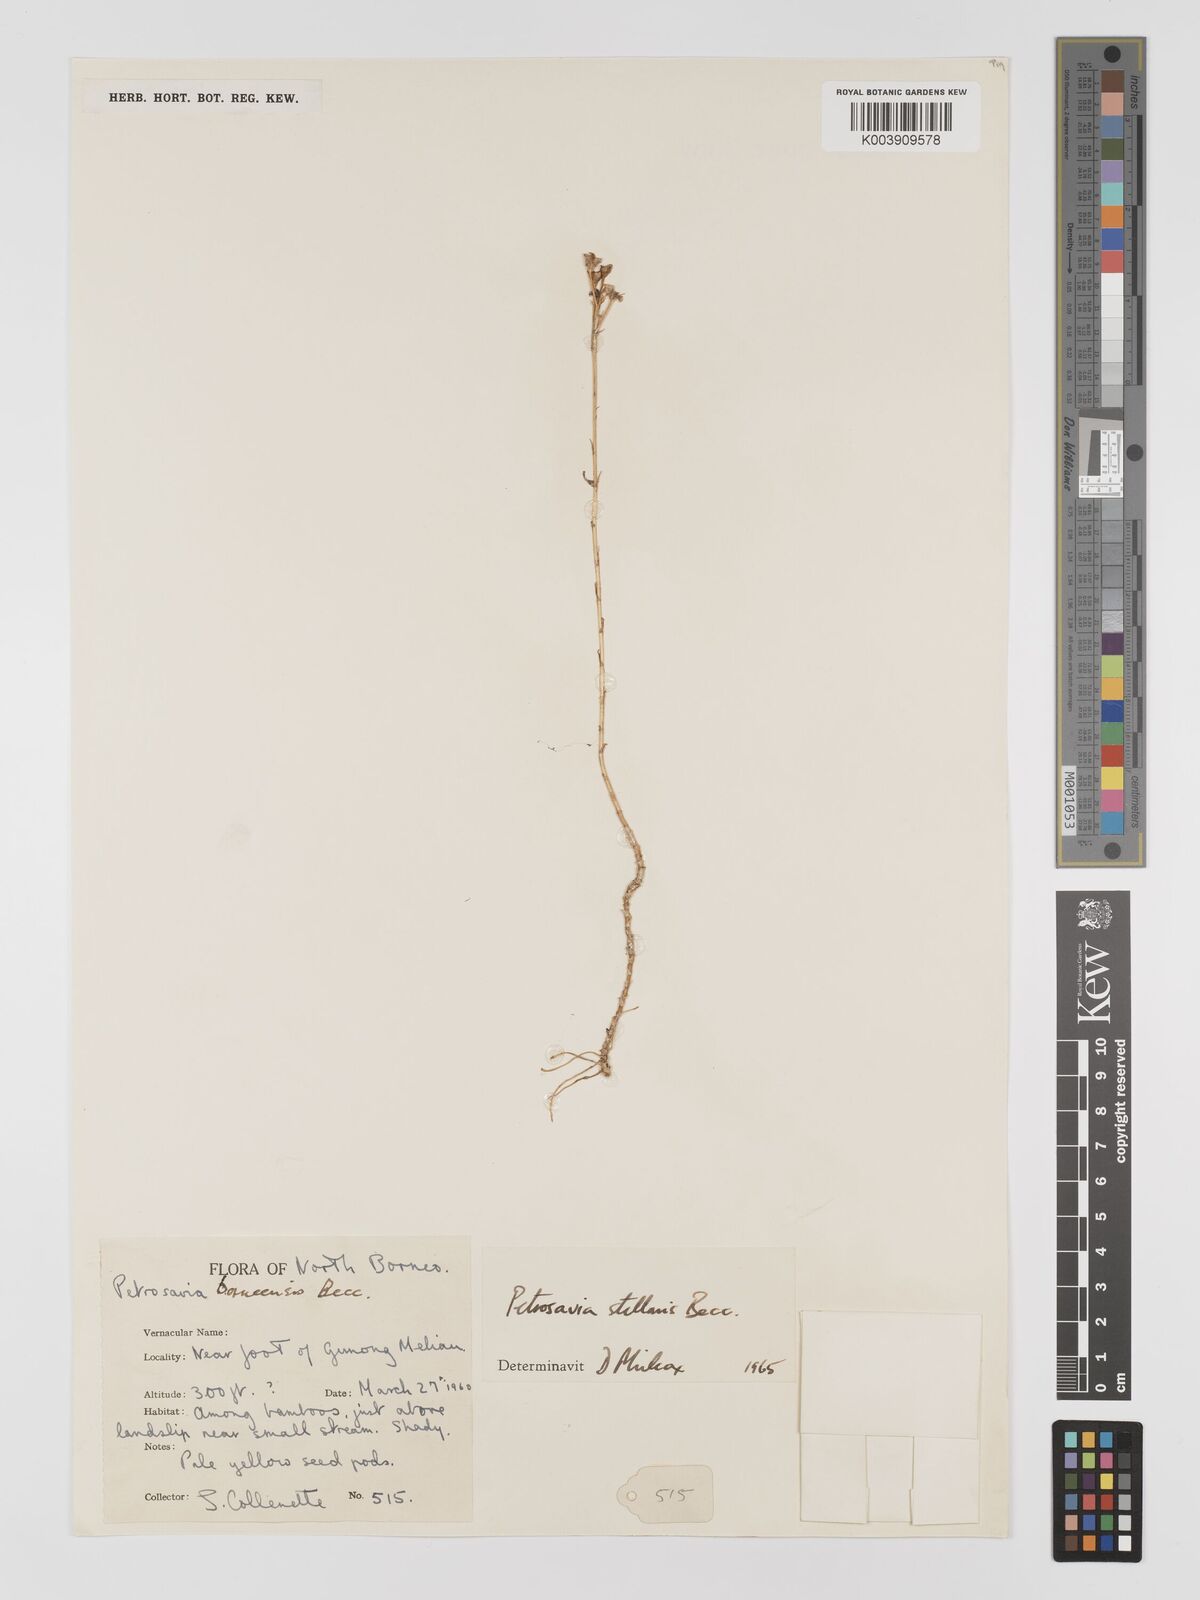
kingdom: Plantae
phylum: Tracheophyta
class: Liliopsida
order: Petrosaviales
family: Petrosaviaceae
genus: Petrosavia
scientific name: Petrosavia stellaris
